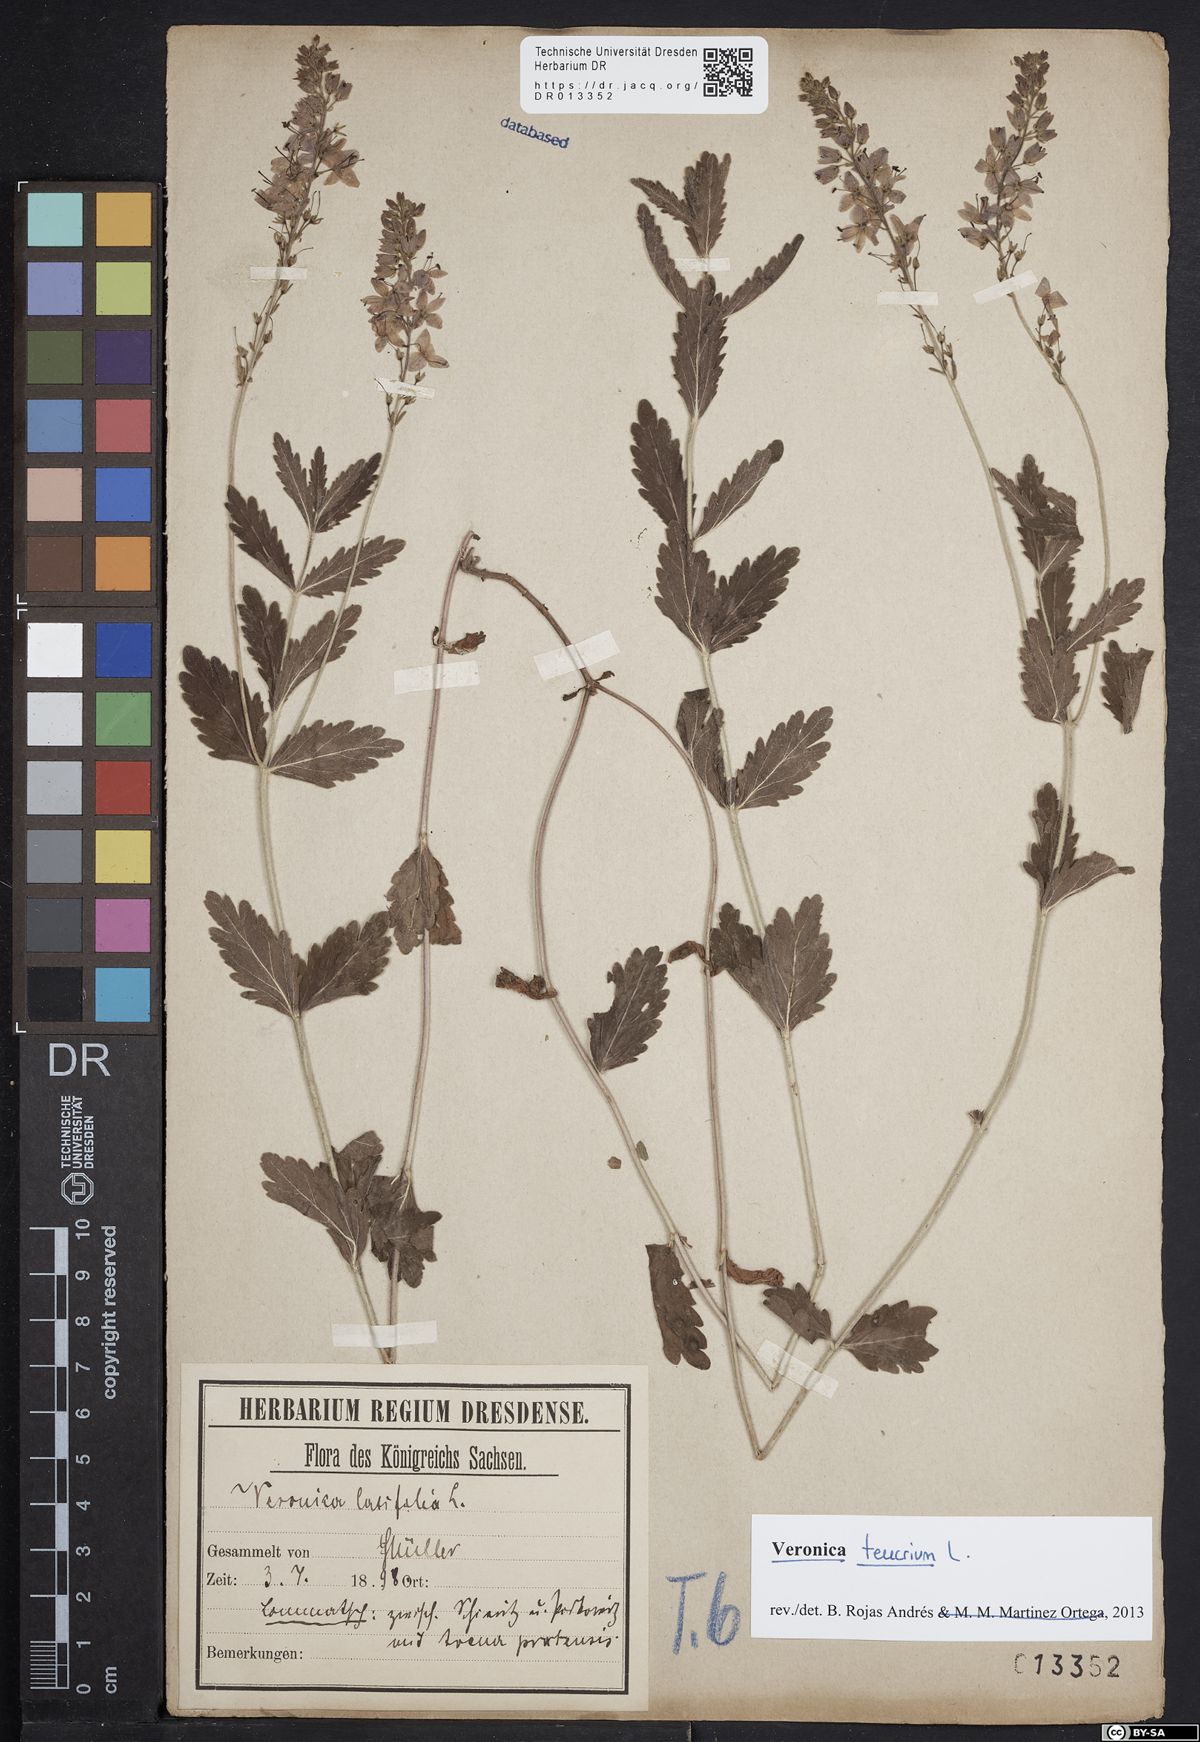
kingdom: Plantae
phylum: Tracheophyta
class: Magnoliopsida
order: Lamiales
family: Plantaginaceae
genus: Veronica
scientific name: Veronica teucrium
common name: Large speedwell
